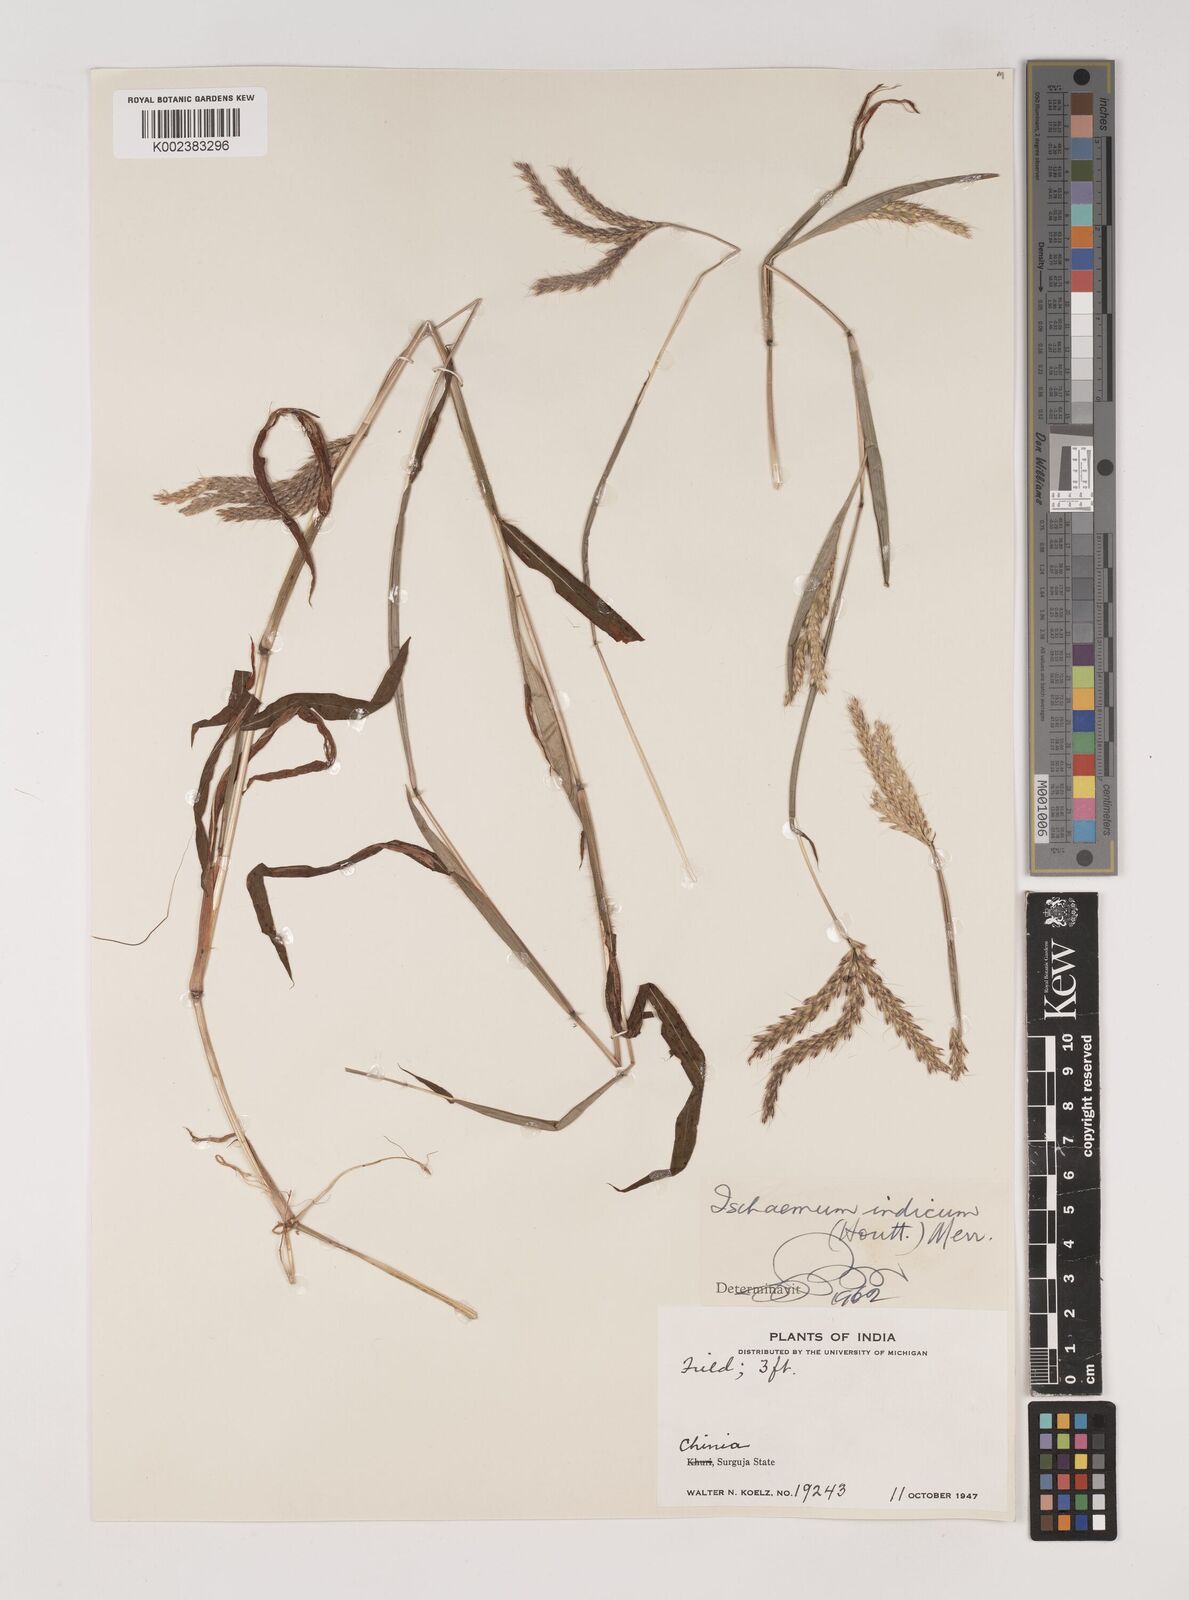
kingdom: Plantae
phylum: Tracheophyta
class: Liliopsida
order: Poales
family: Poaceae
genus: Polytrias
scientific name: Polytrias indica
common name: Indian murainagrass
